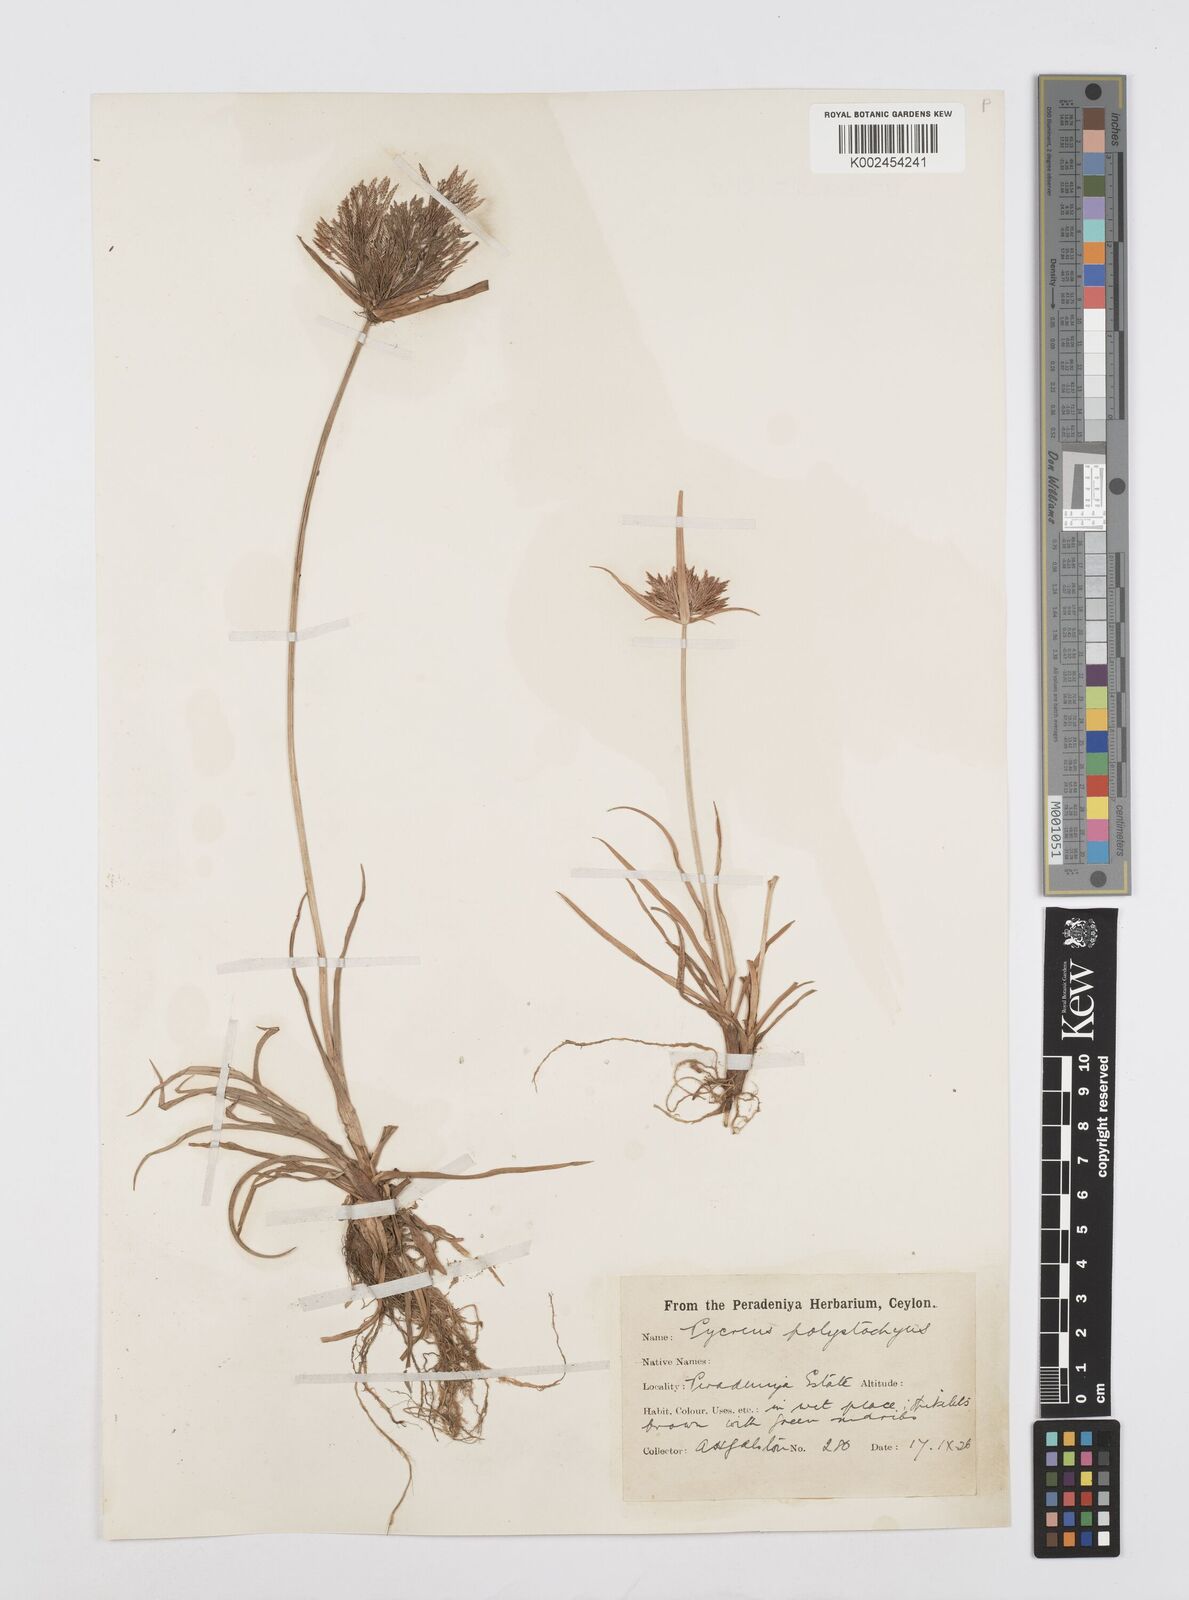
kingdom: Plantae
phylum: Tracheophyta
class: Liliopsida
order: Poales
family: Cyperaceae
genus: Cyperus
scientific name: Cyperus polystachyos
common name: Bunchy flat sedge
